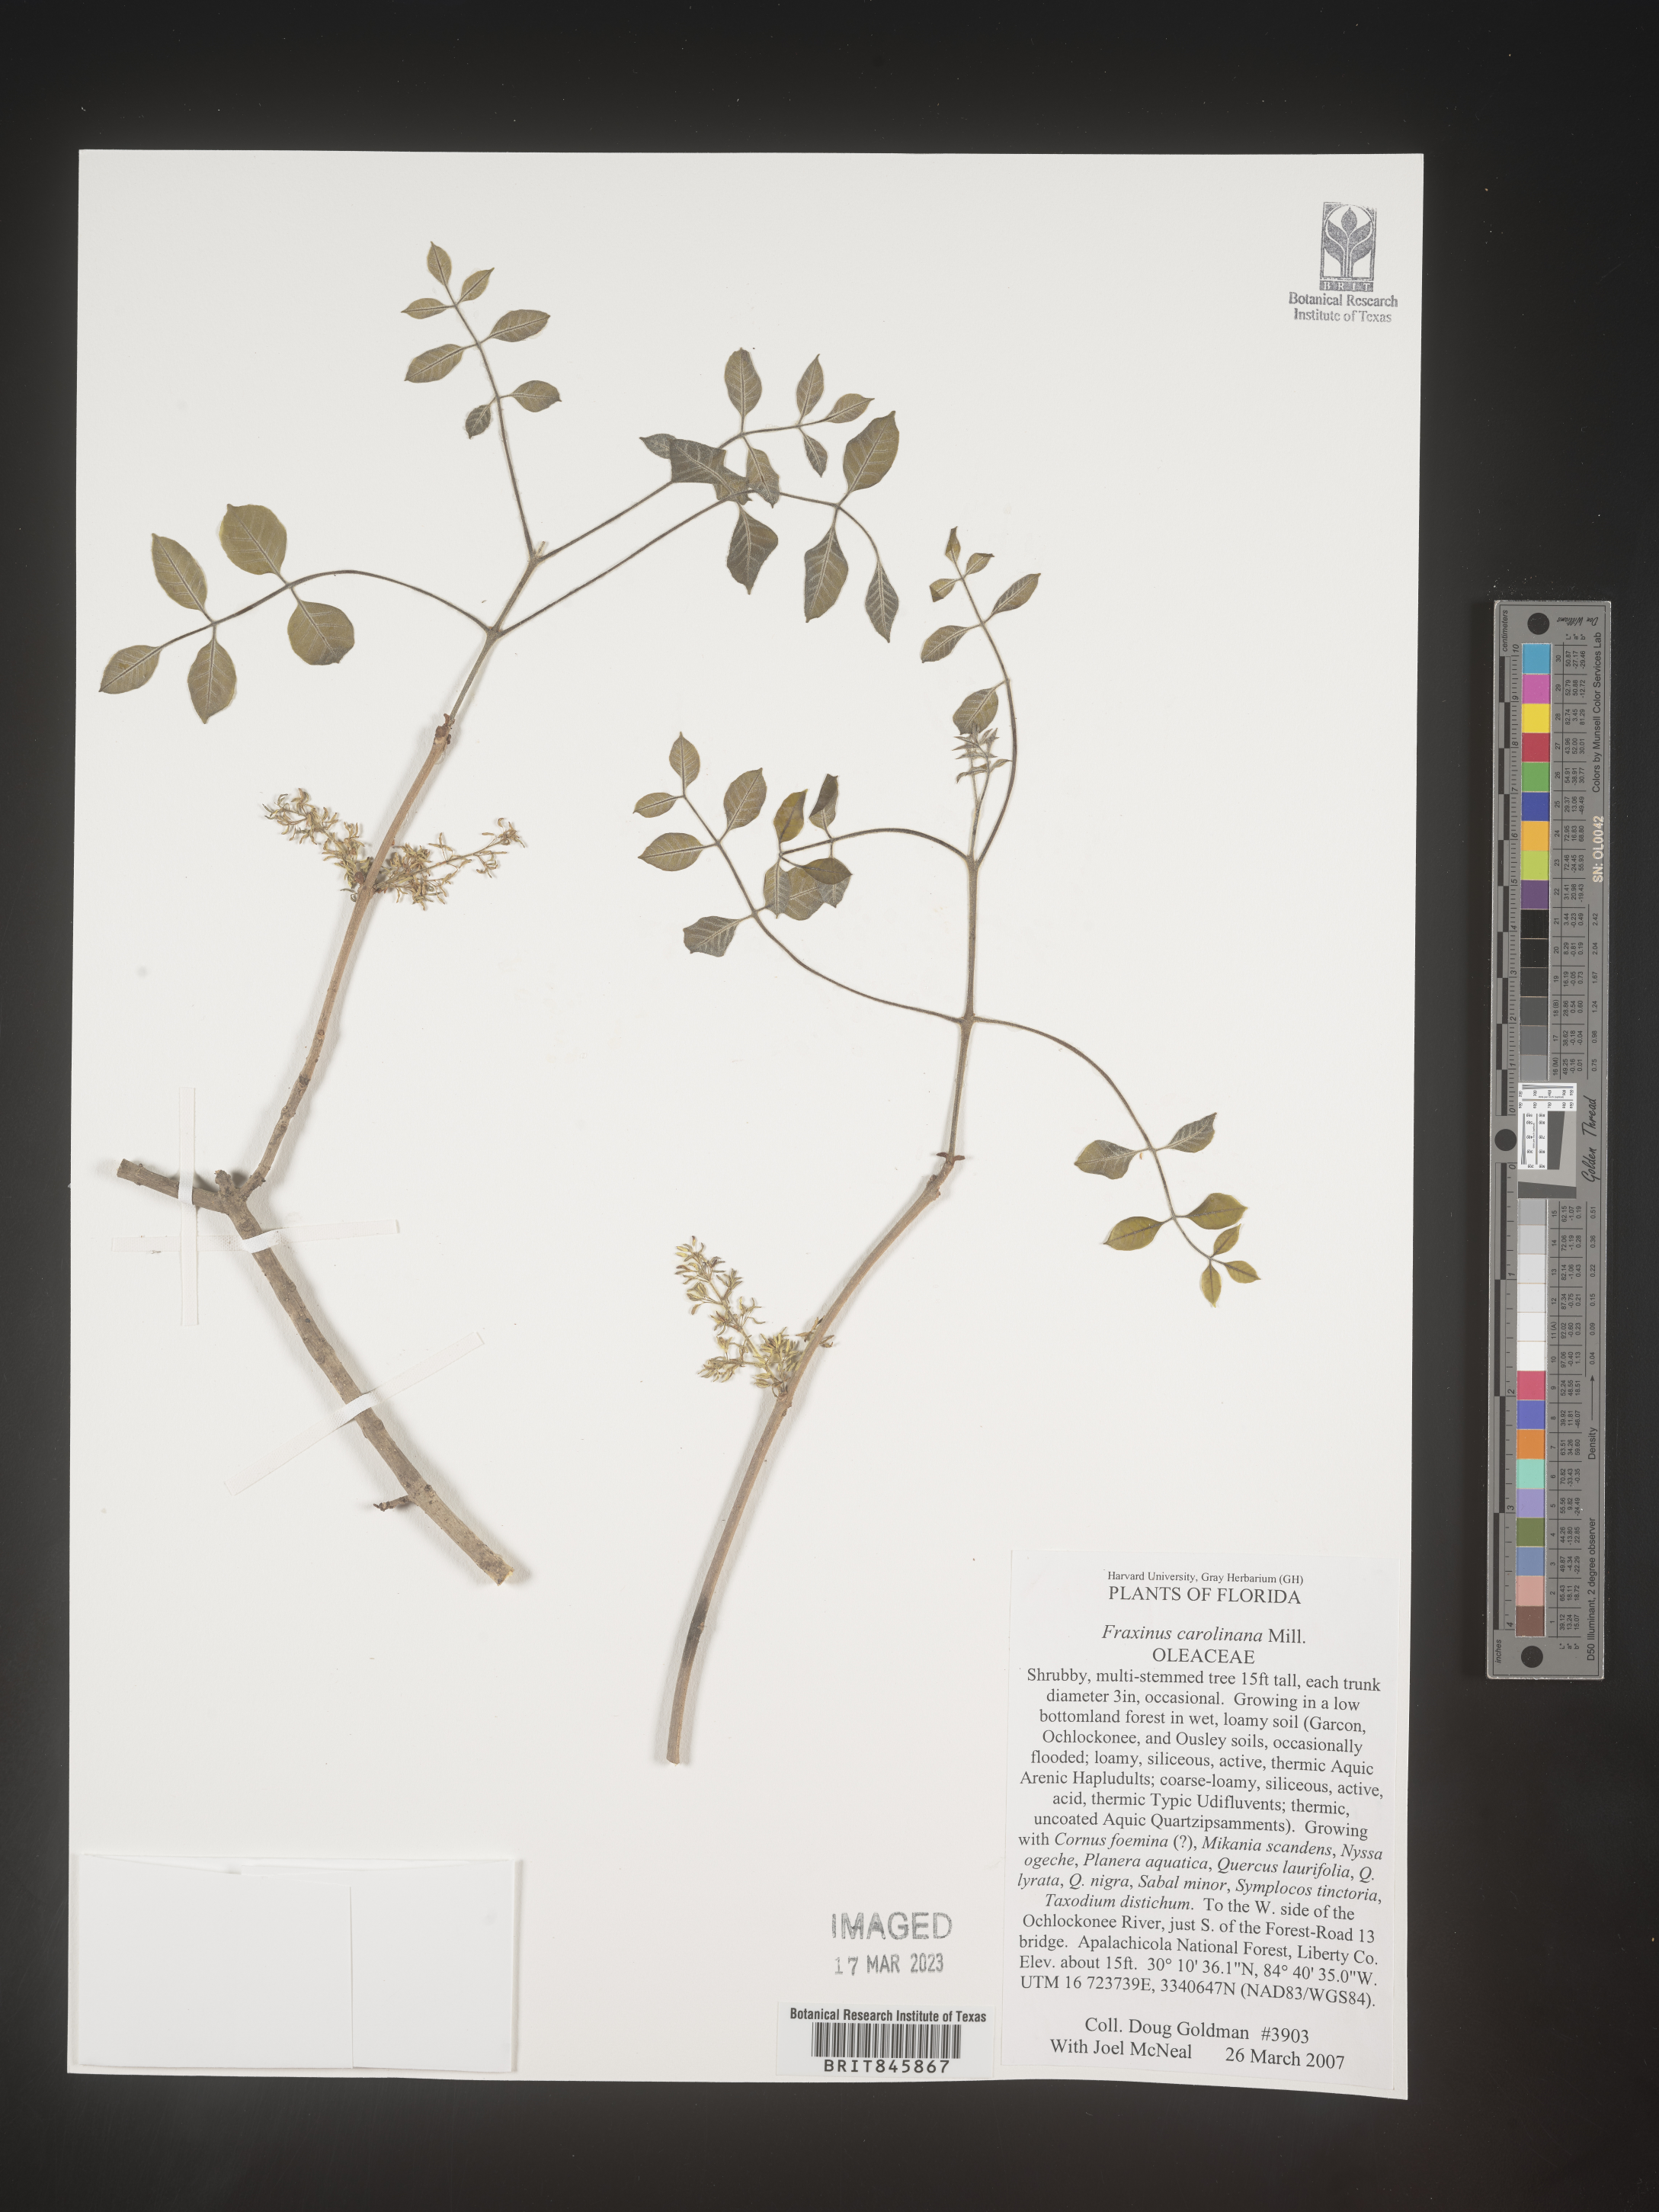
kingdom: Plantae
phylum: Tracheophyta
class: Magnoliopsida
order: Lamiales
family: Oleaceae
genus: Fraxinus
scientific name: Fraxinus caroliniana
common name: Carolina ash
